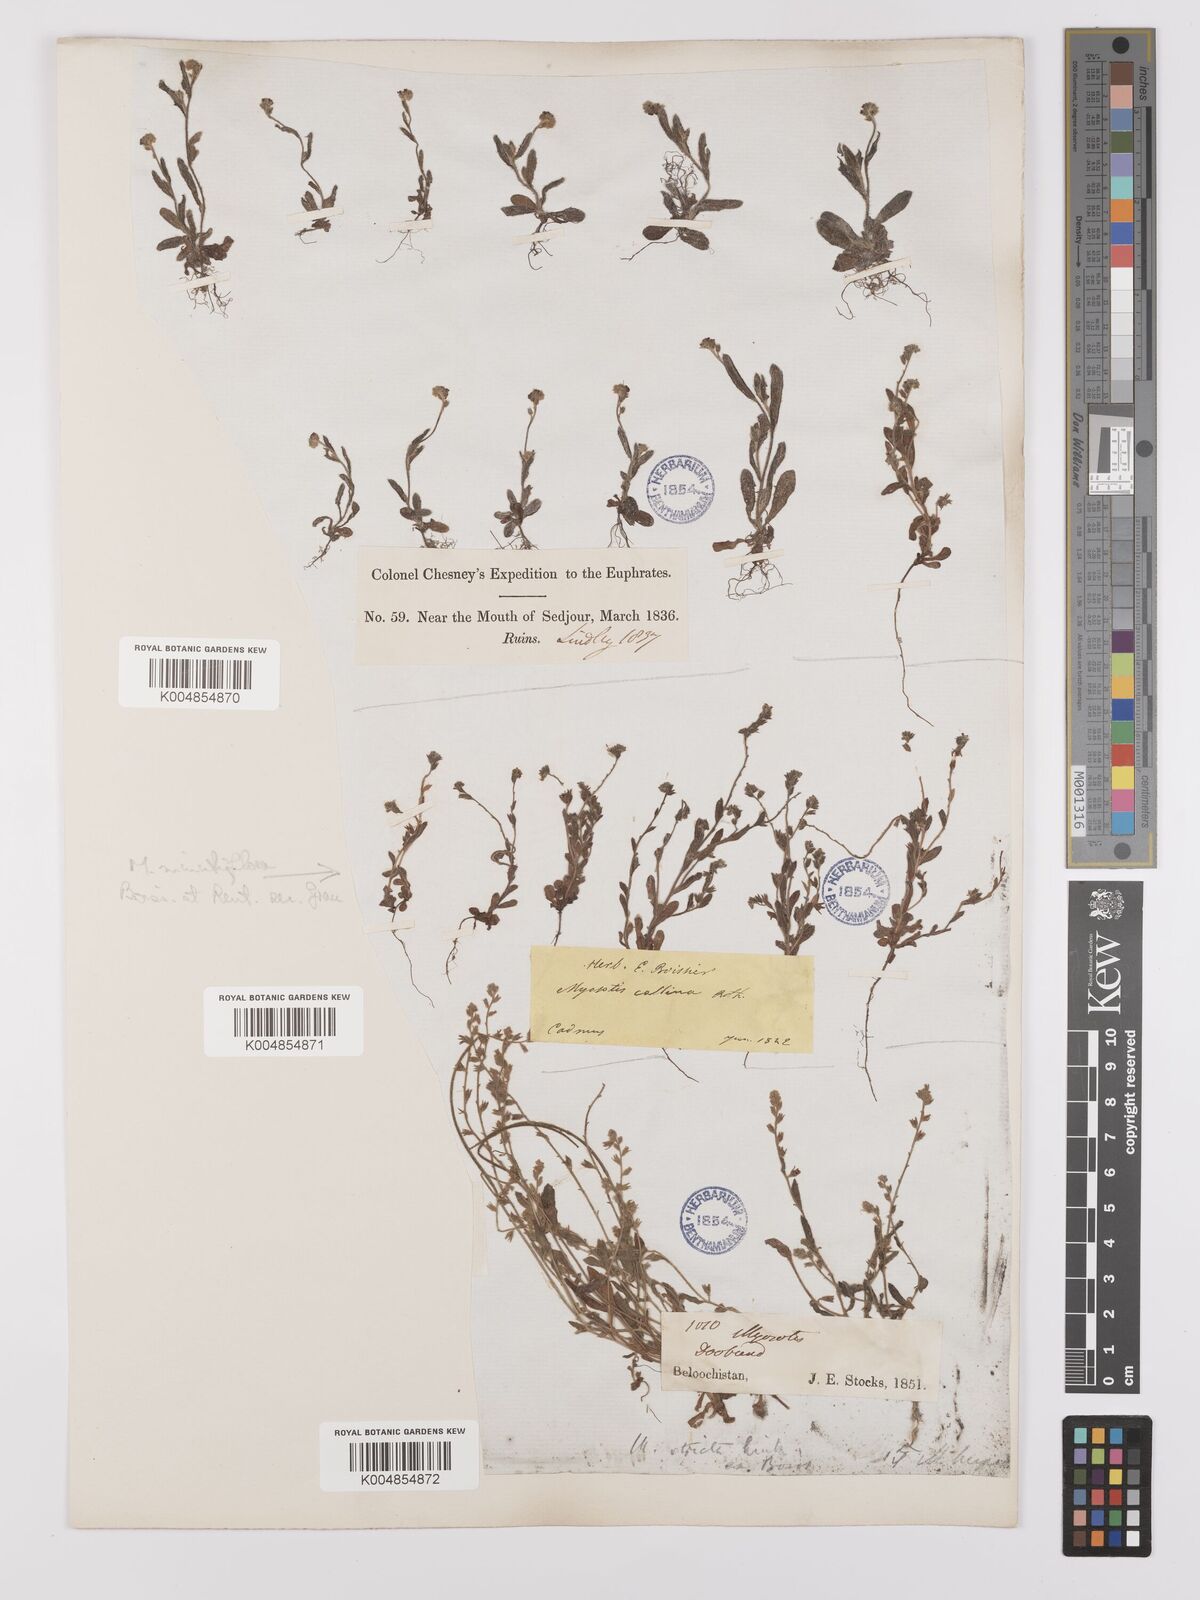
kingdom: Plantae
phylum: Tracheophyta
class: Magnoliopsida
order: Boraginales
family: Boraginaceae
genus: Myosotis
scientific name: Myosotis minutiflora
